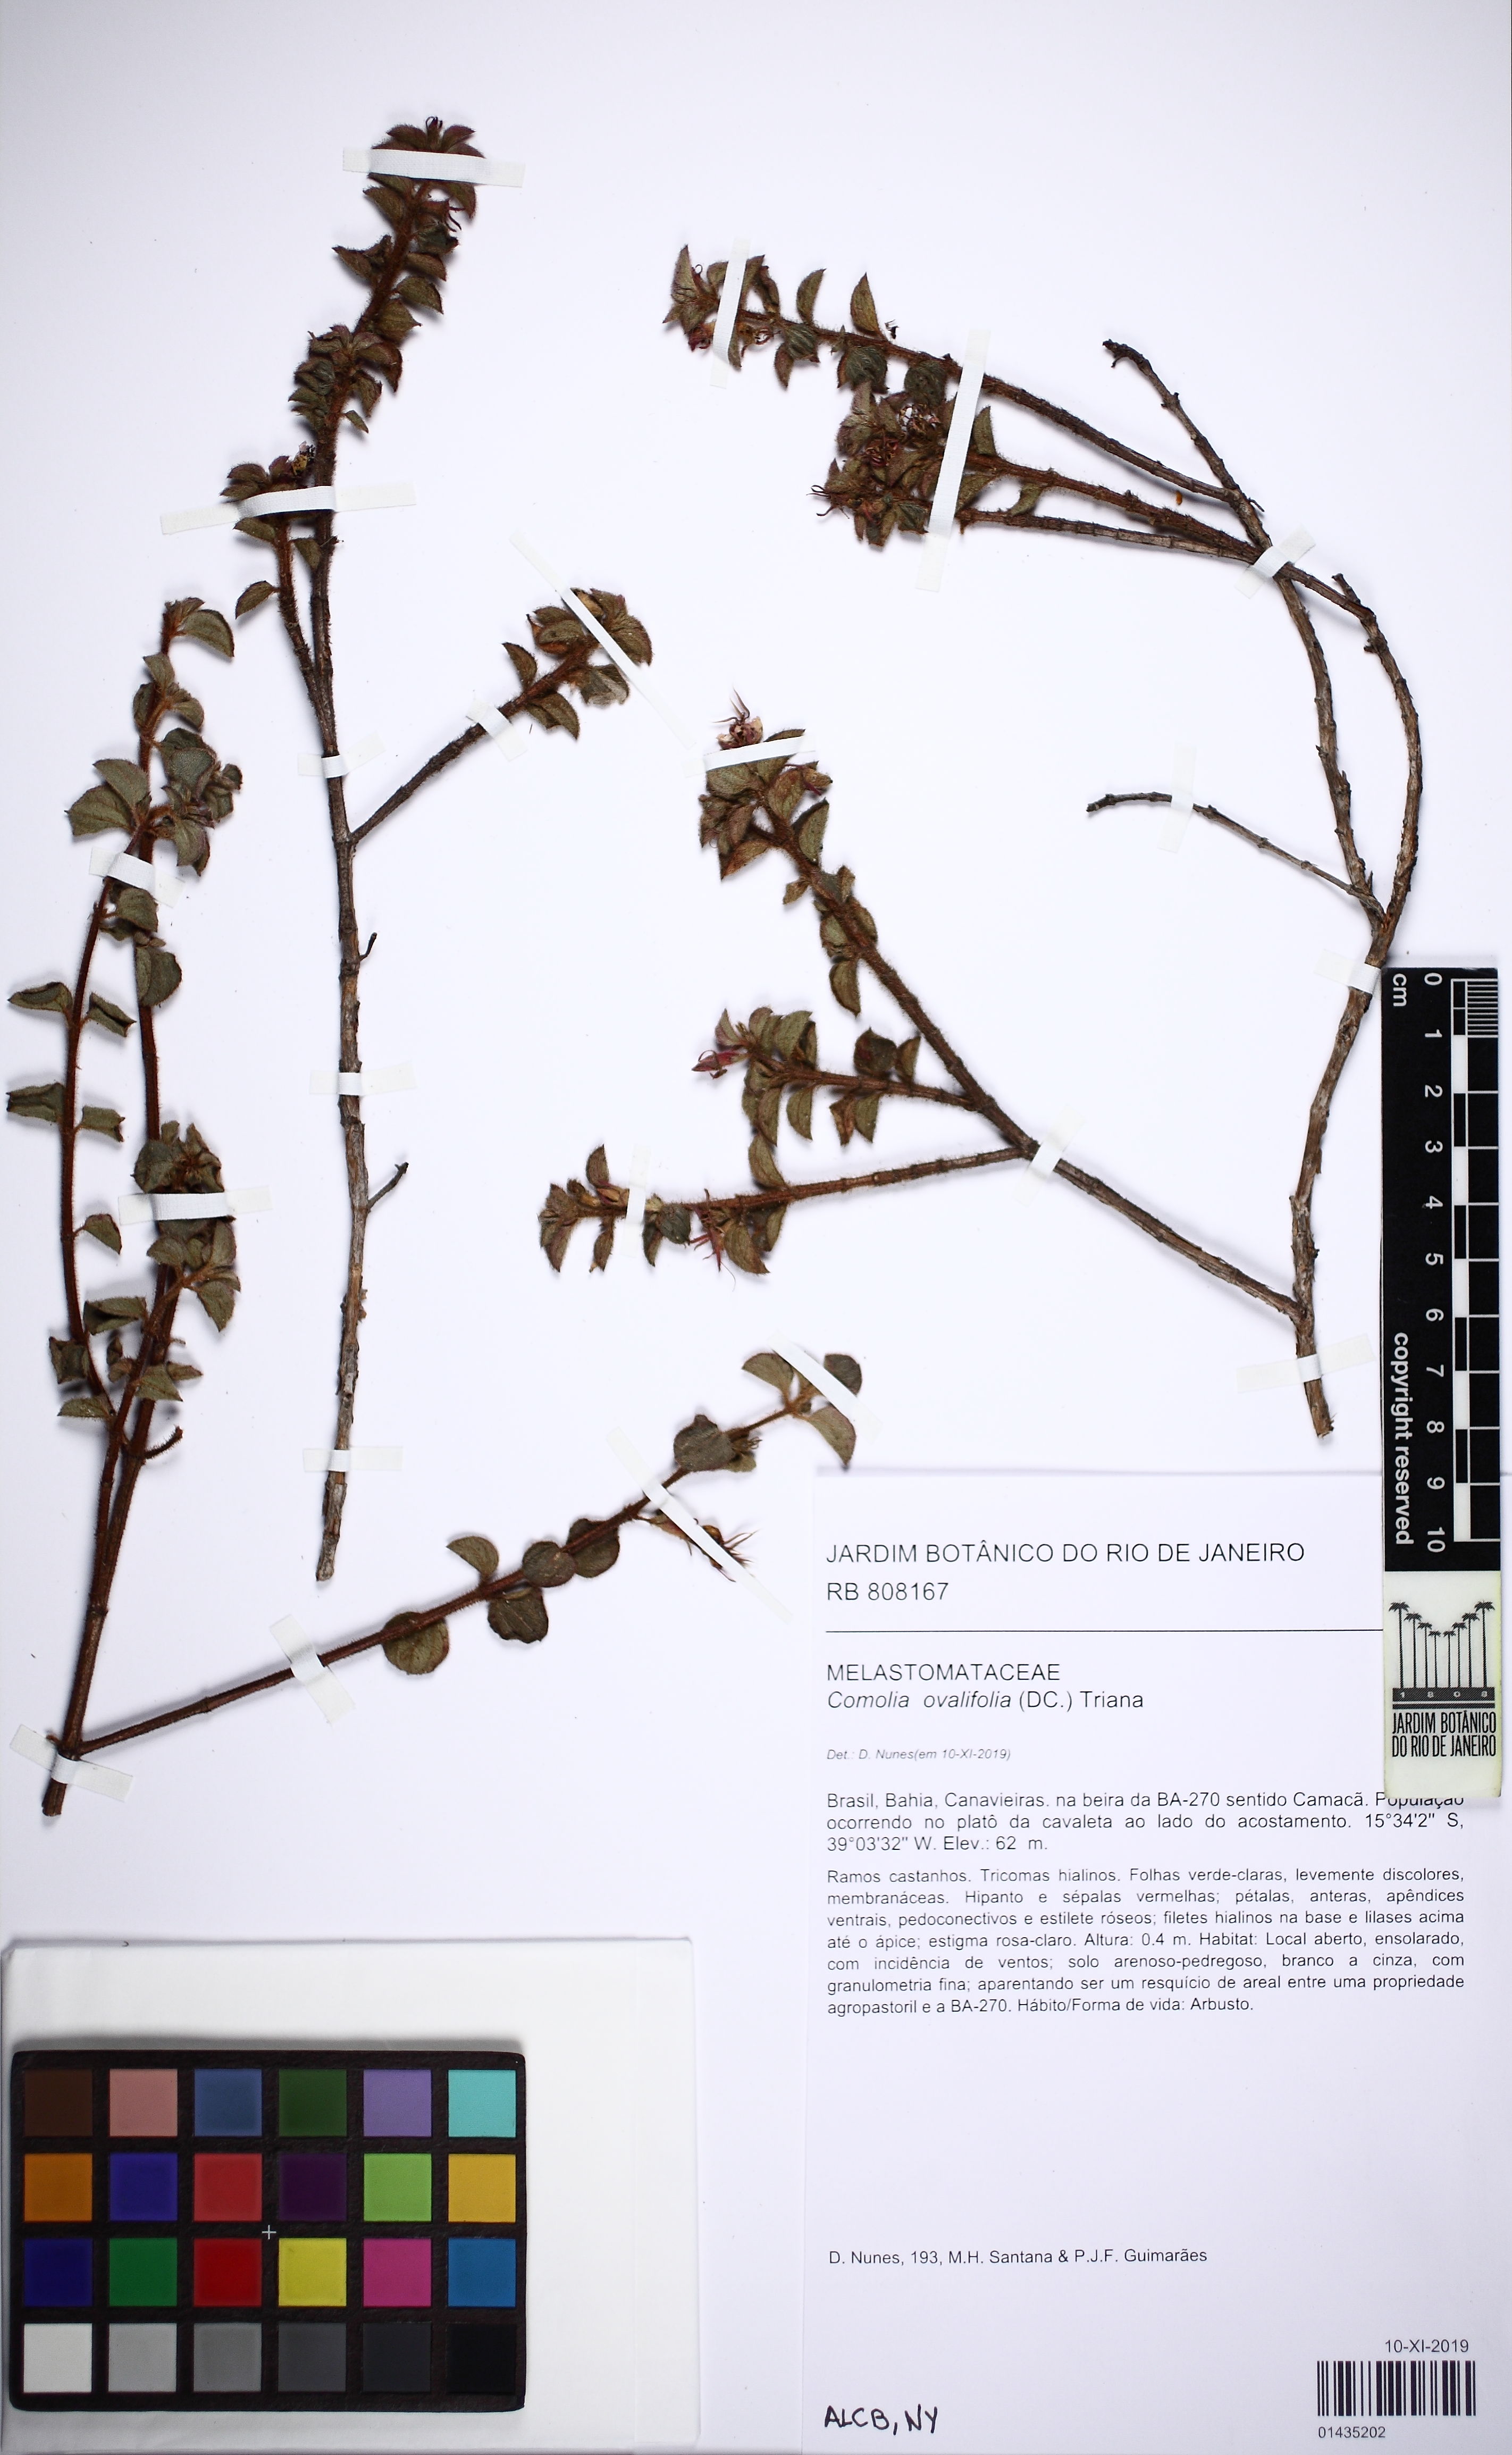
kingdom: Plantae
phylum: Tracheophyta
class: Magnoliopsida
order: Myrtales
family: Melastomataceae
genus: Comolia
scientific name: Comolia ovalifolia
